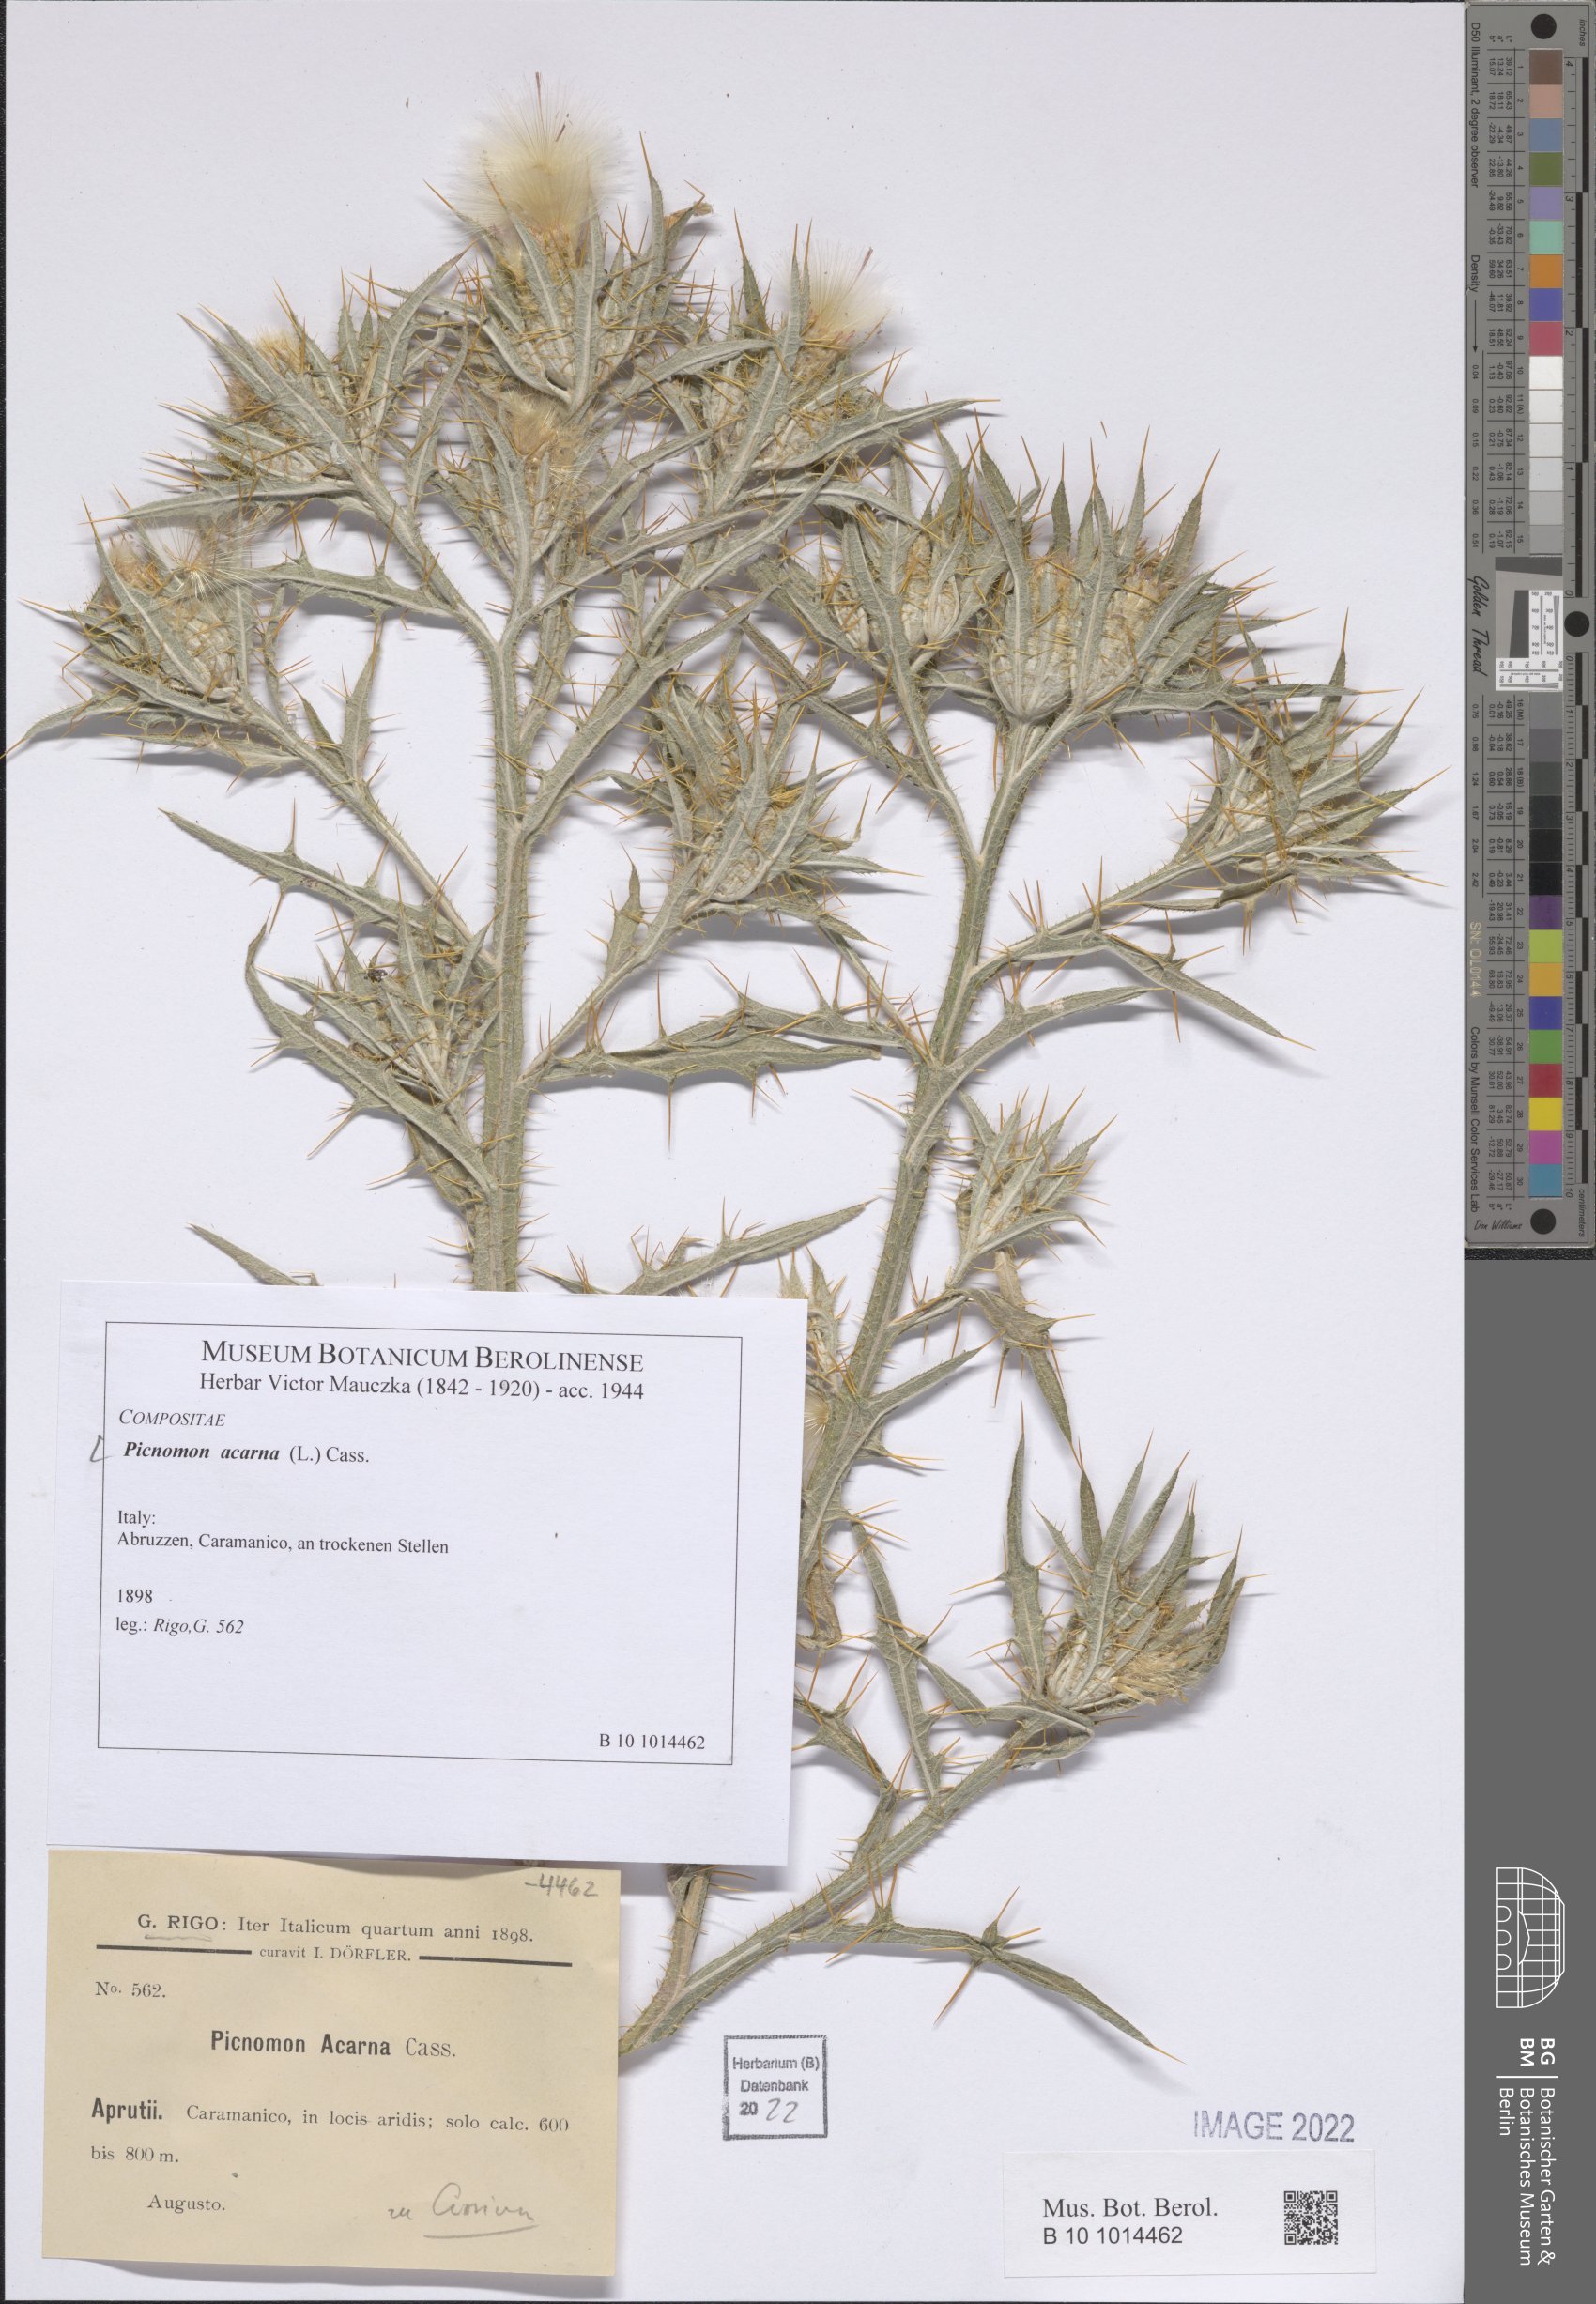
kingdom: Plantae
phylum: Tracheophyta
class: Magnoliopsida
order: Asterales
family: Asteraceae
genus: Picnomon
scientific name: Picnomon acarna
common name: Soldier thistle
